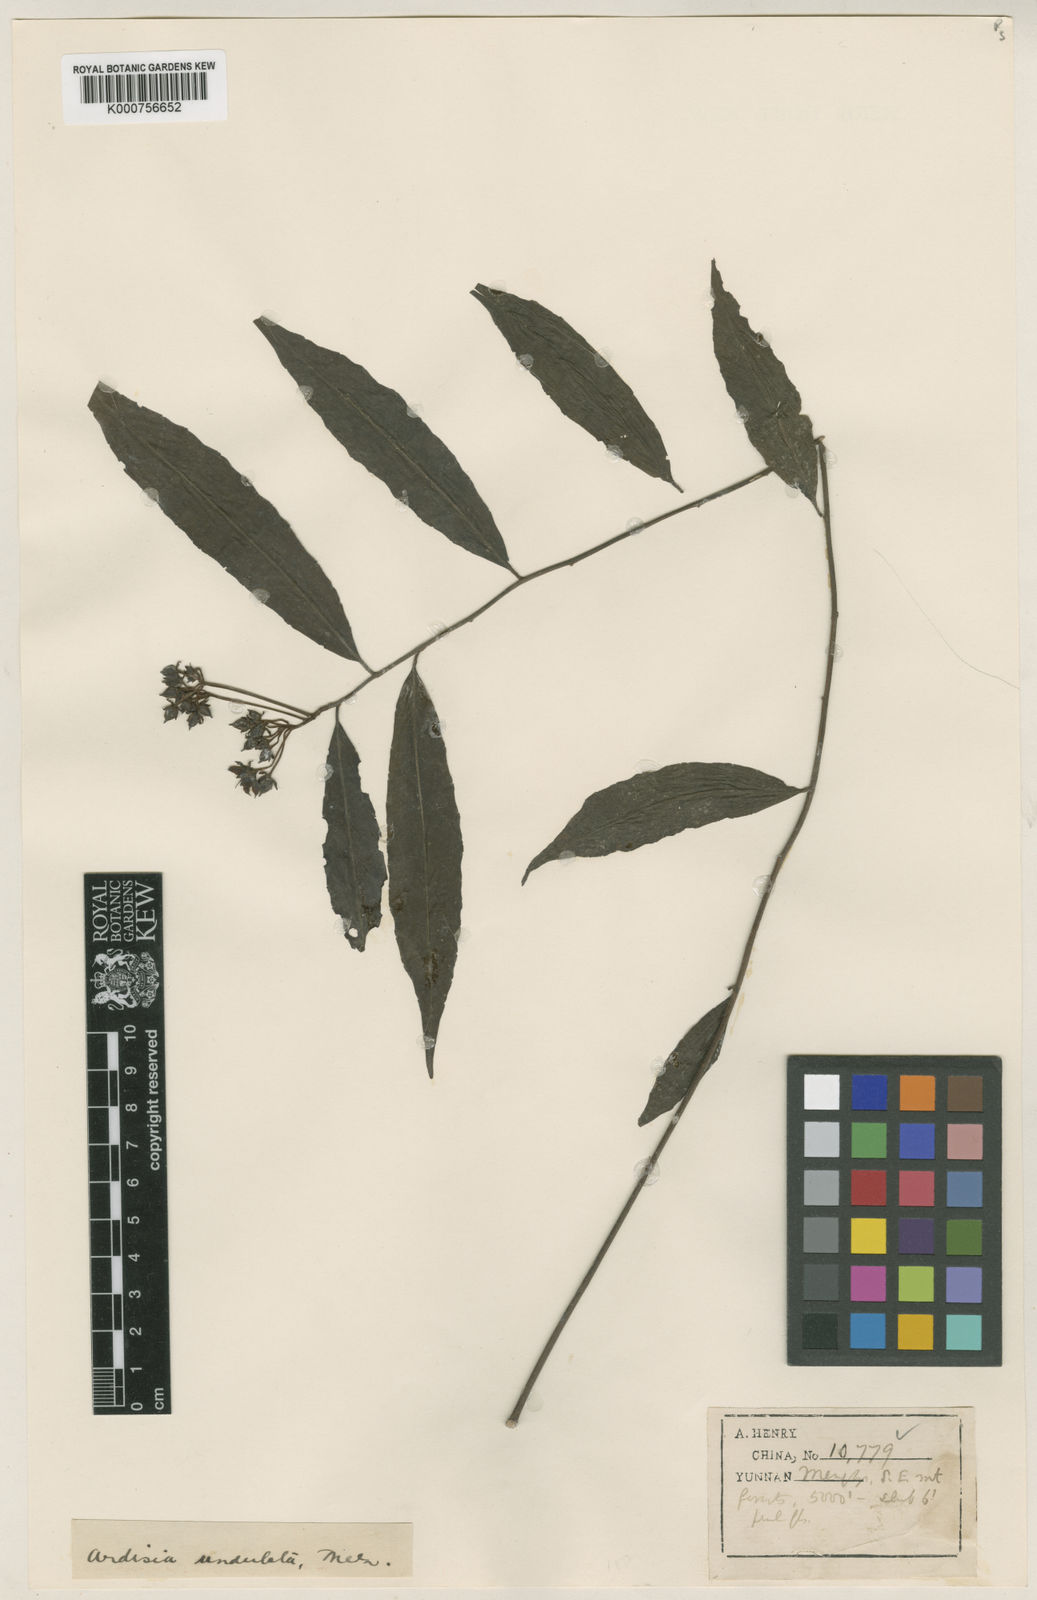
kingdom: Plantae
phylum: Tracheophyta
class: Magnoliopsida
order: Ericales
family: Primulaceae
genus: Ardisia
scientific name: Ardisia
